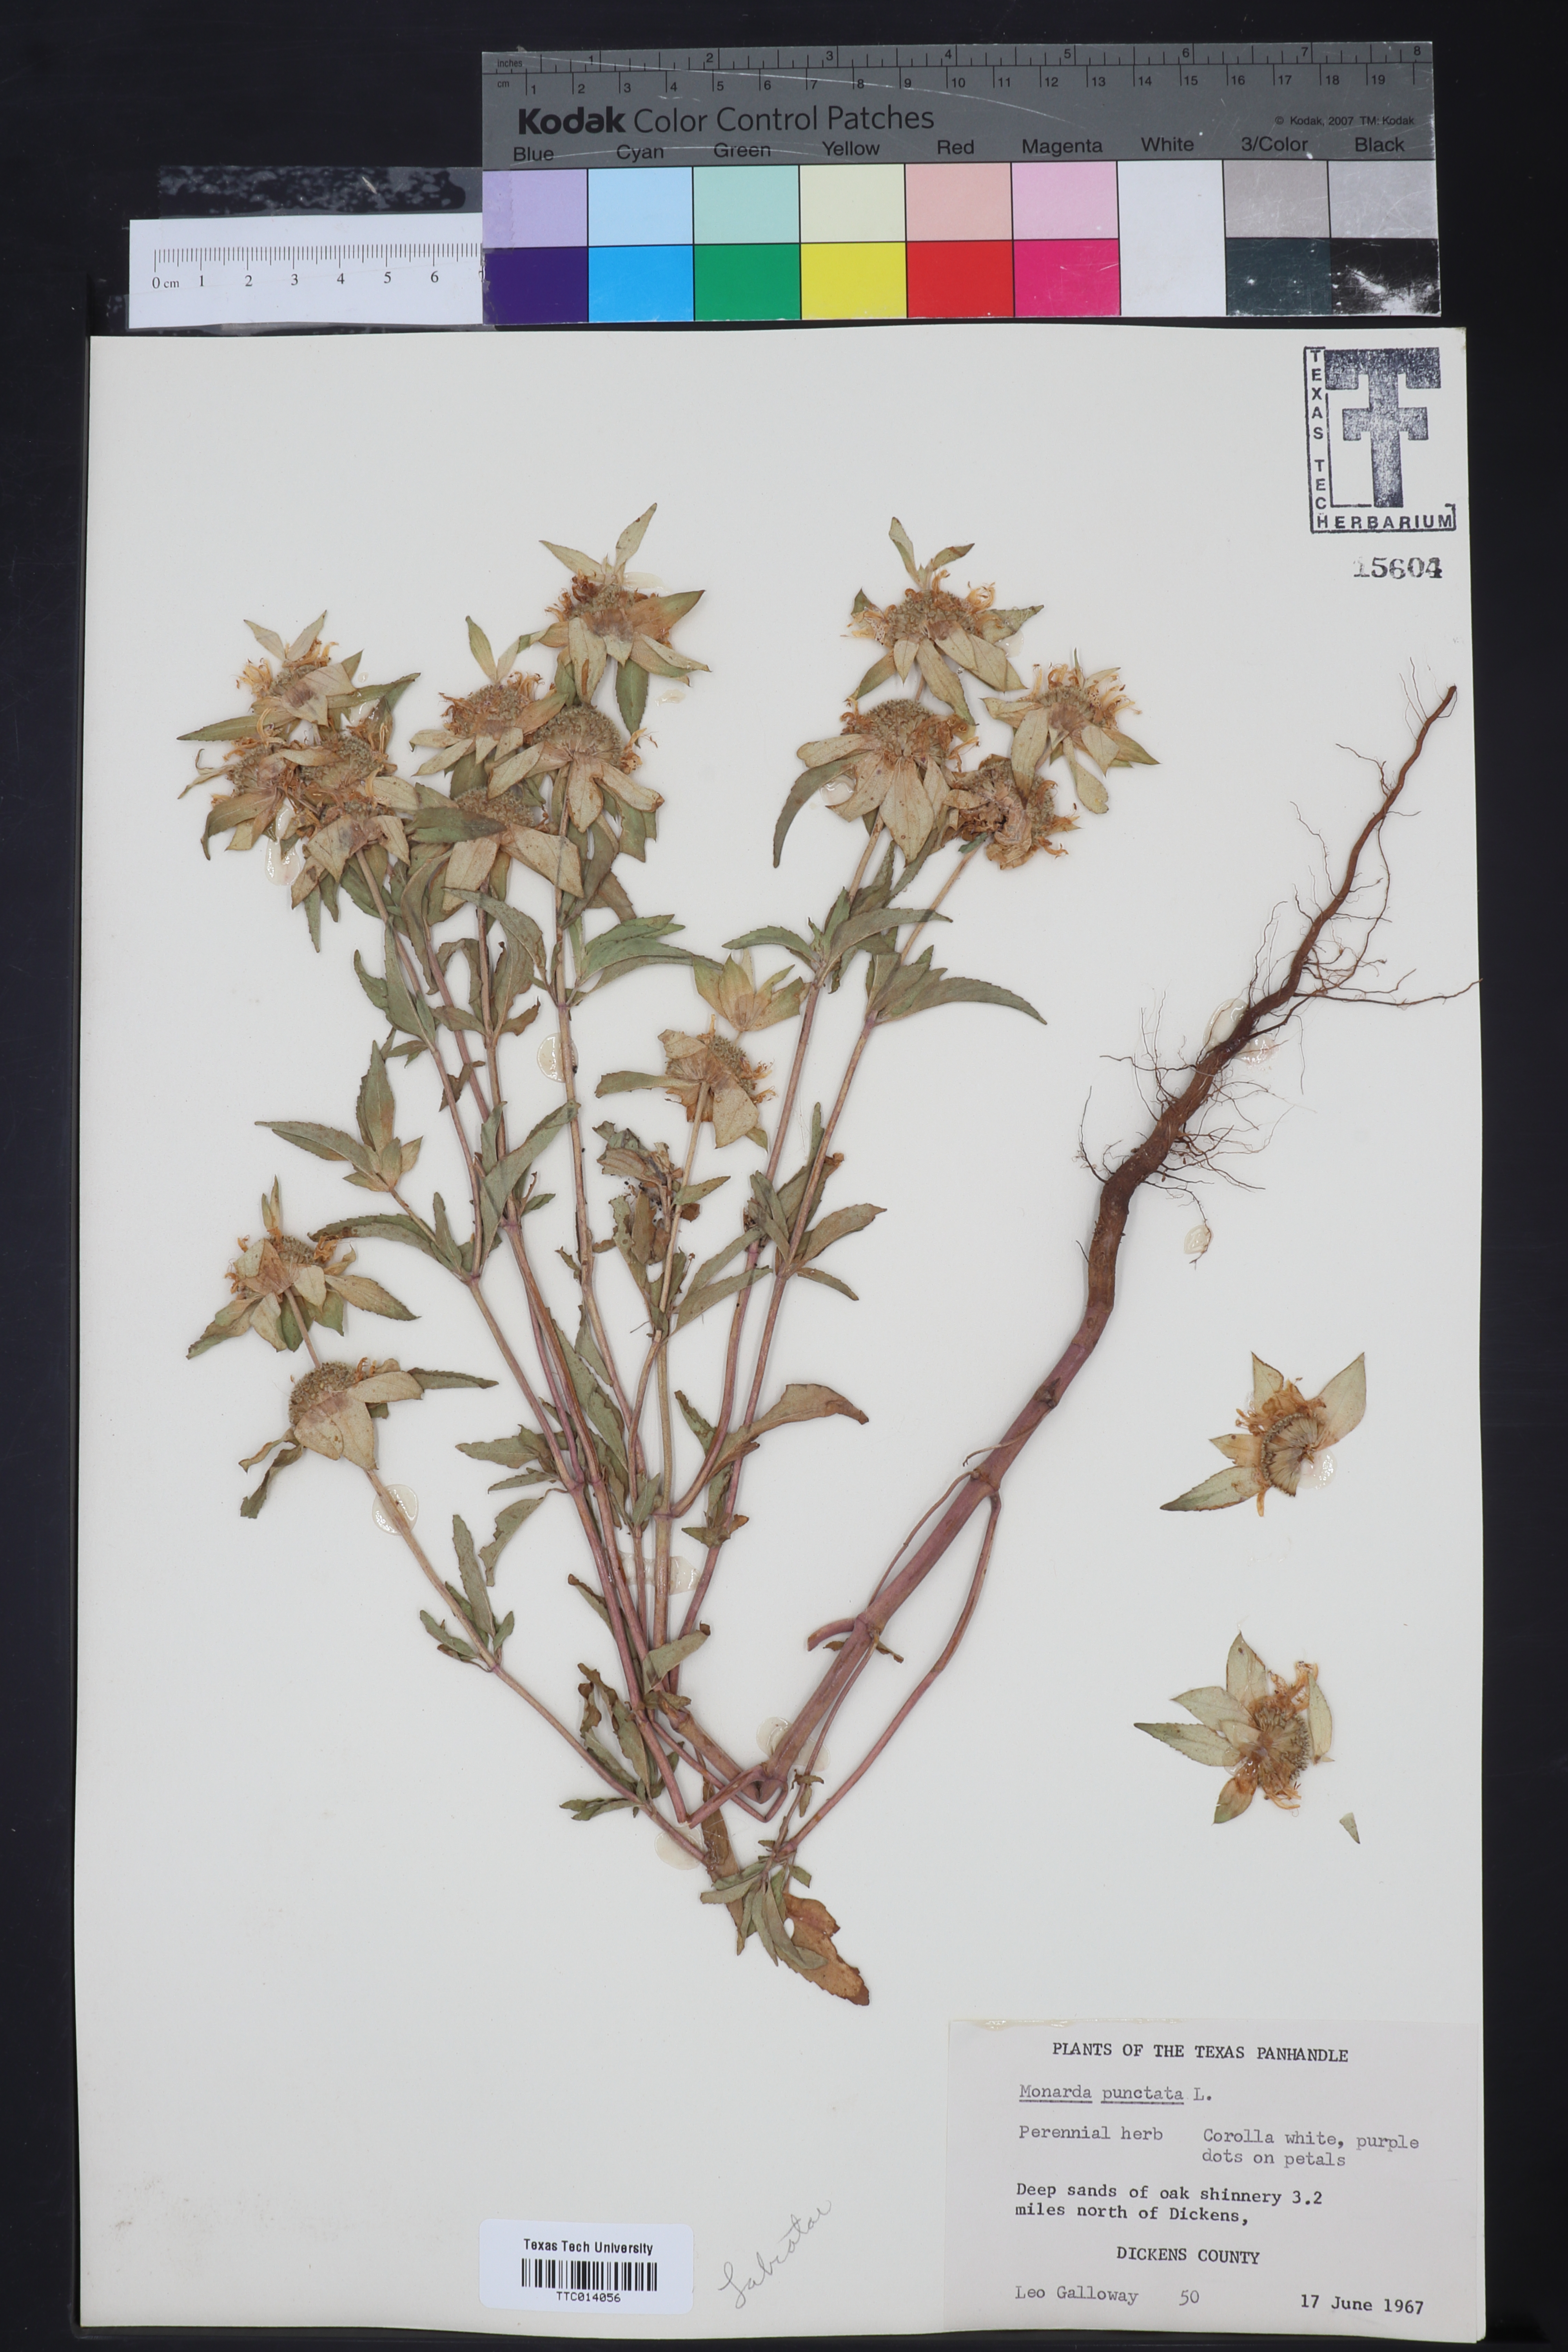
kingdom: Plantae
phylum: Tracheophyta
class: Magnoliopsida
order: Lamiales
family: Lamiaceae
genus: Monarda
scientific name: Monarda punctata
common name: Dotted monarda
